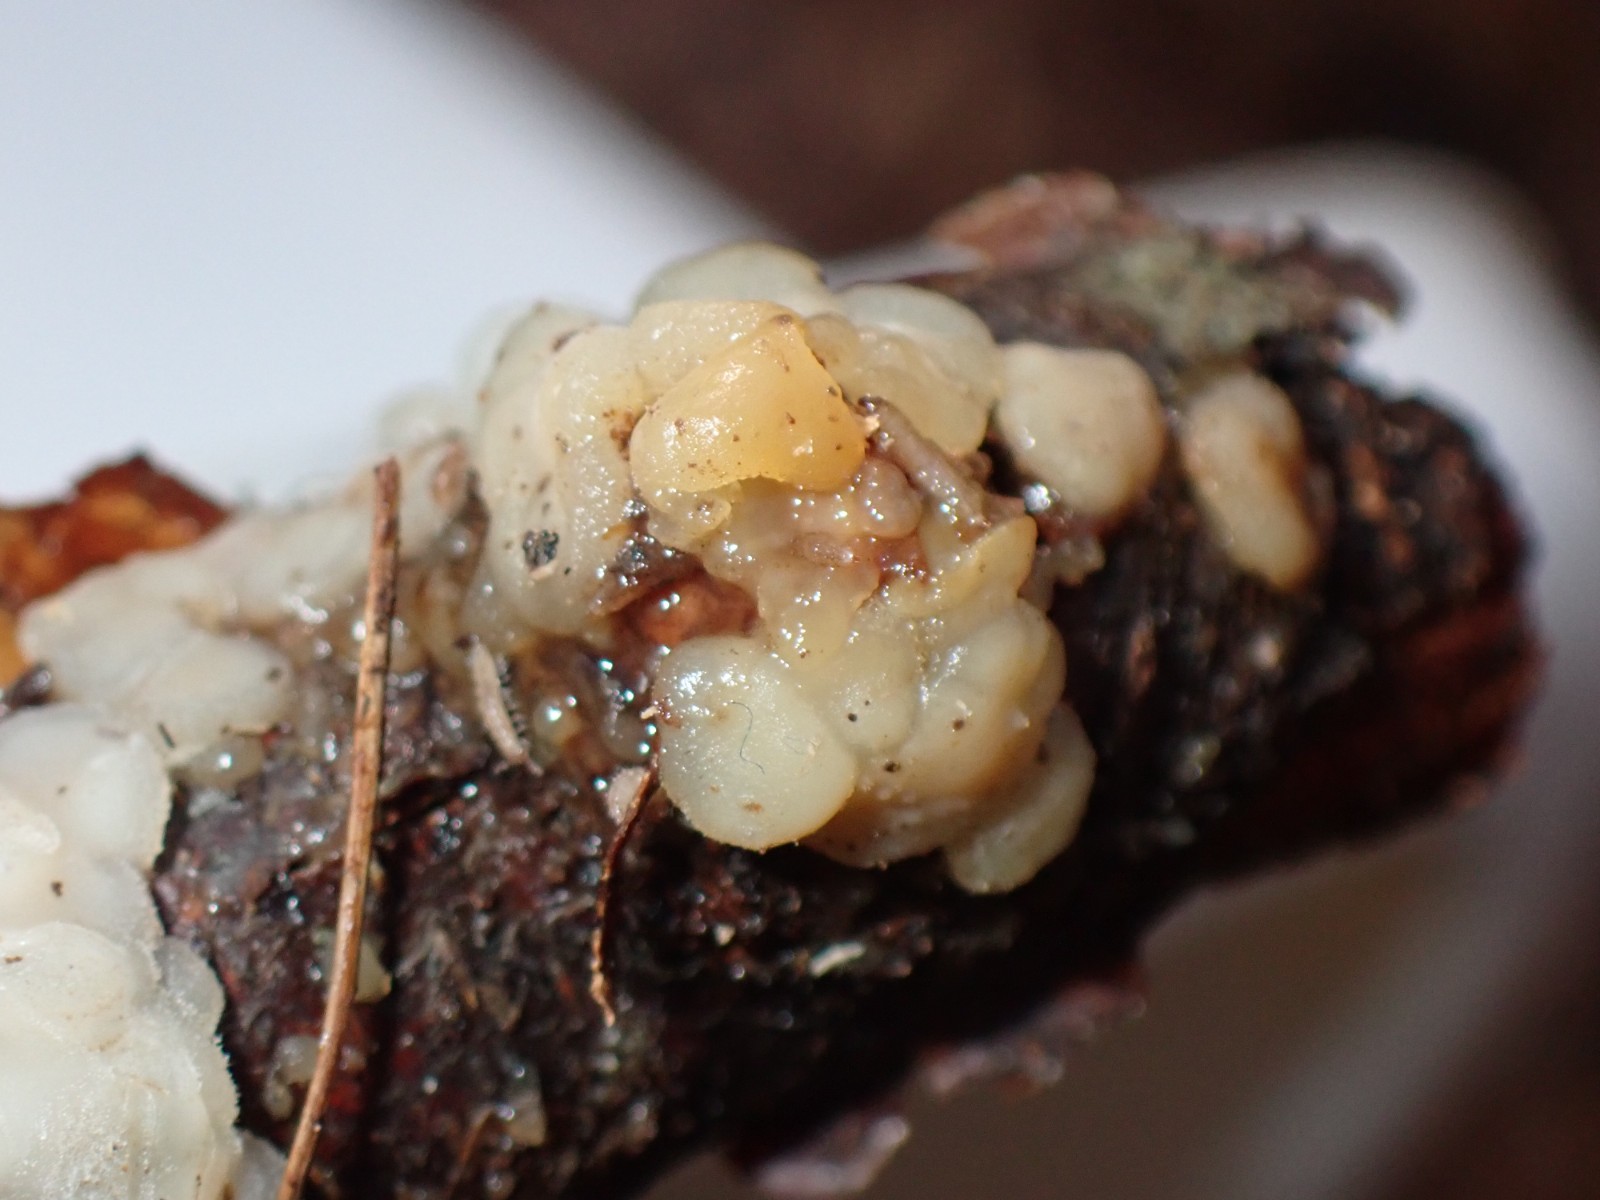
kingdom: Fungi
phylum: Basidiomycota
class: Agaricomycetes
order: Auriculariales
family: Auriculariaceae
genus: Exidia
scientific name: Exidia thuretiana
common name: hvidlig bævretop
